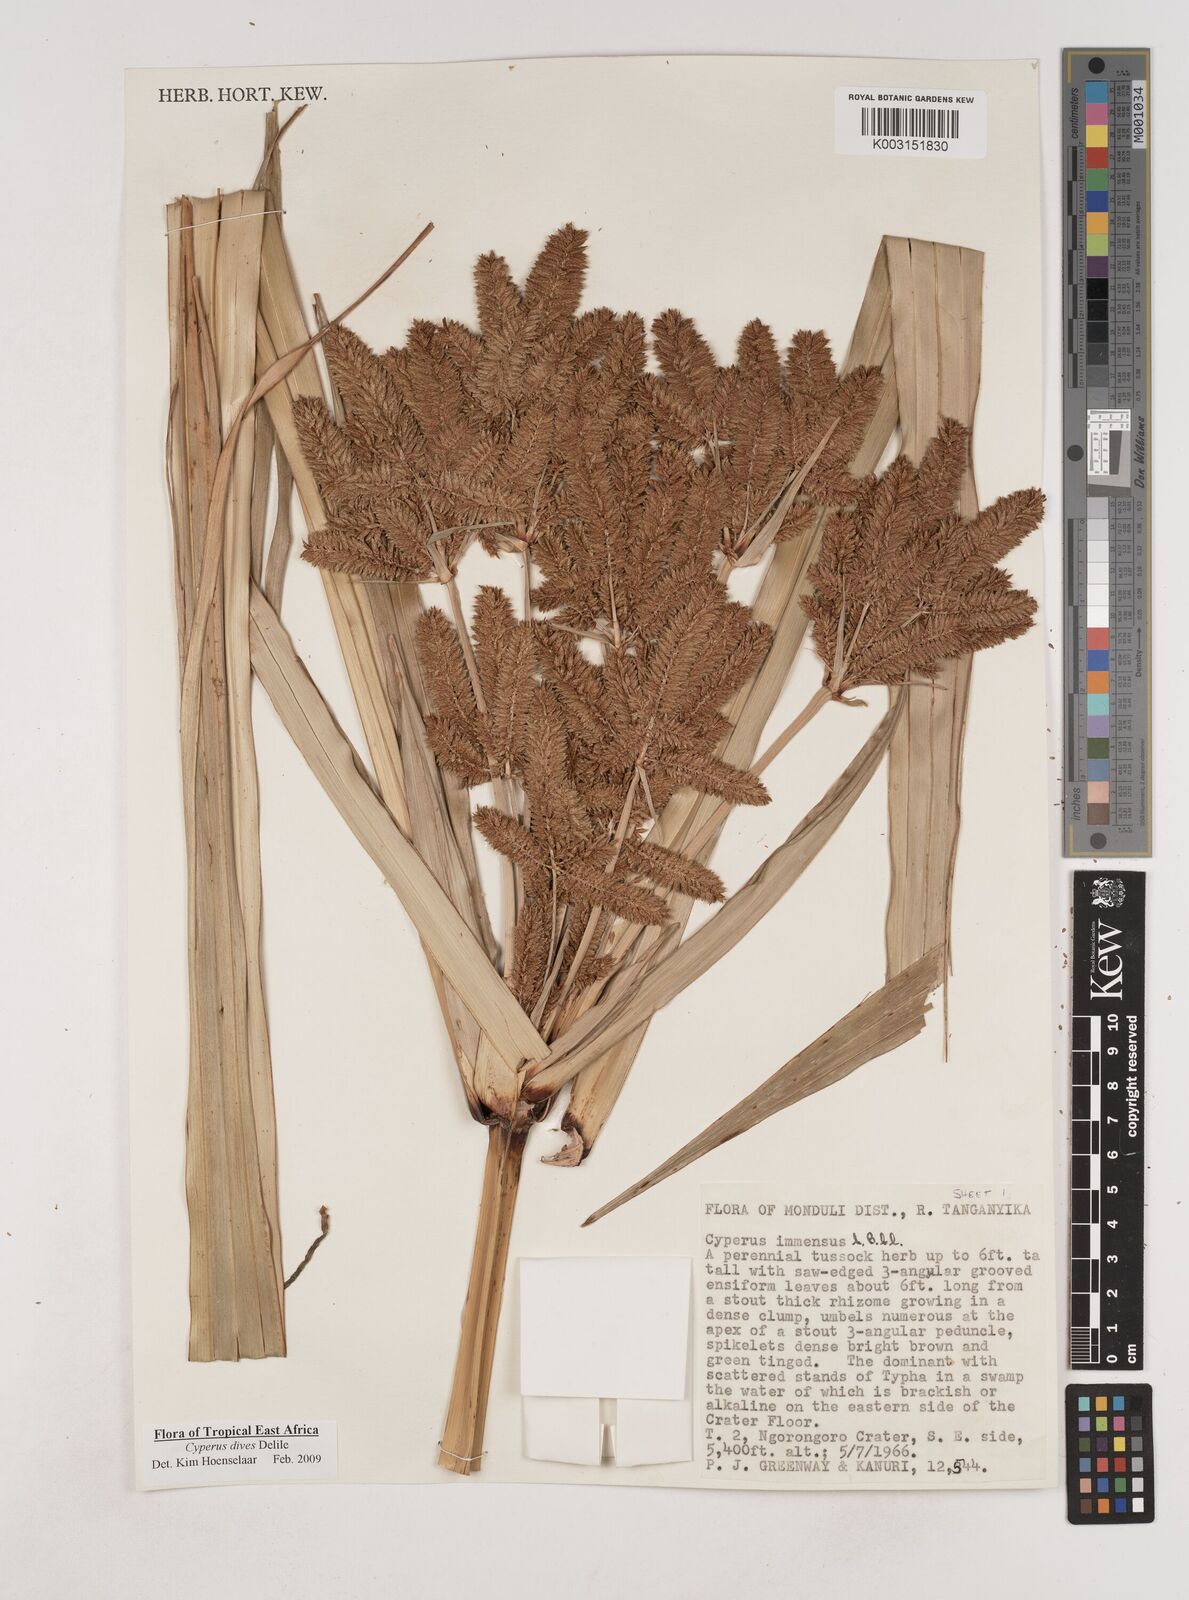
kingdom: Plantae
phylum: Tracheophyta
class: Liliopsida
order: Poales
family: Cyperaceae
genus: Cyperus
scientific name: Cyperus dives
